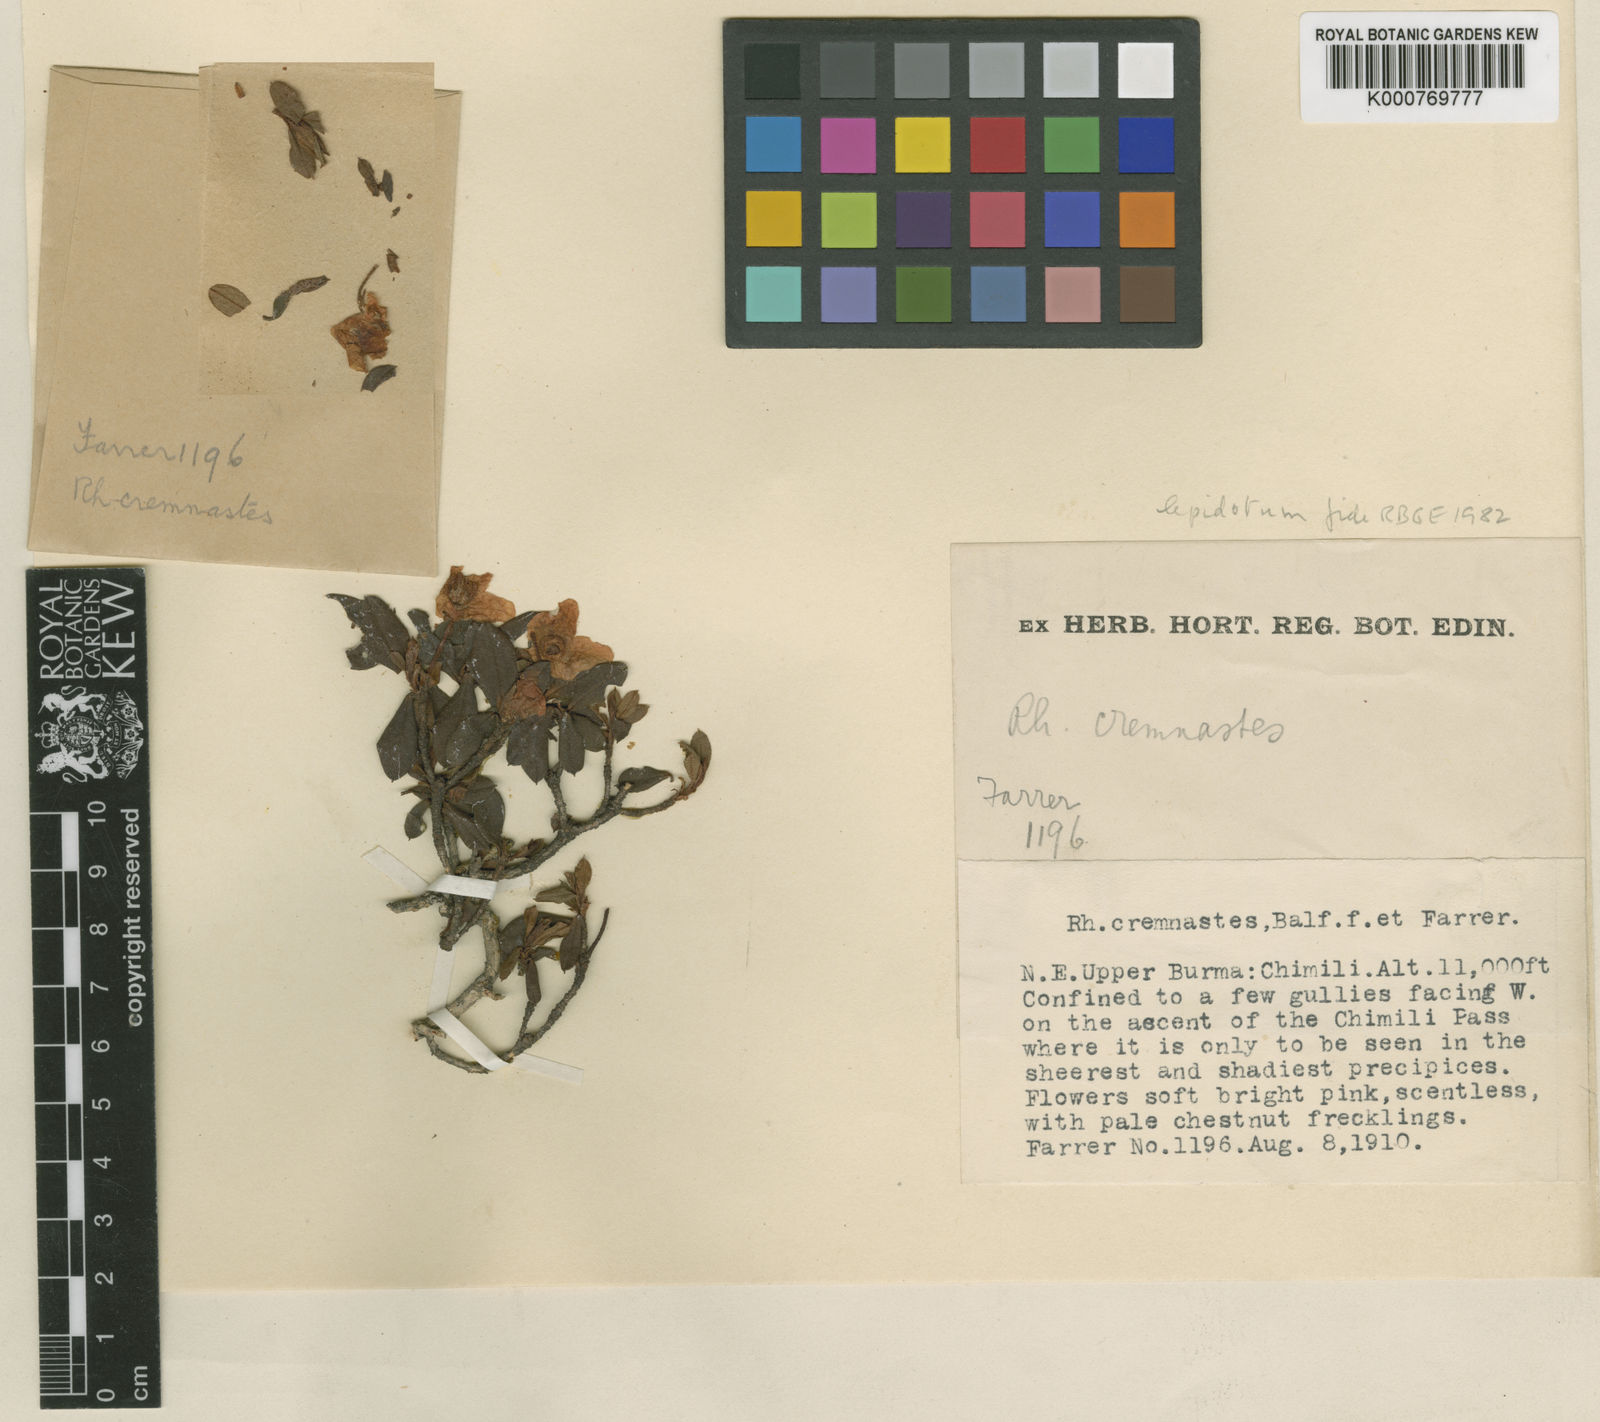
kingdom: Plantae
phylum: Tracheophyta
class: Magnoliopsida
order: Ericales
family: Ericaceae
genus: Rhododendron
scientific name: Rhododendron lepidotum
